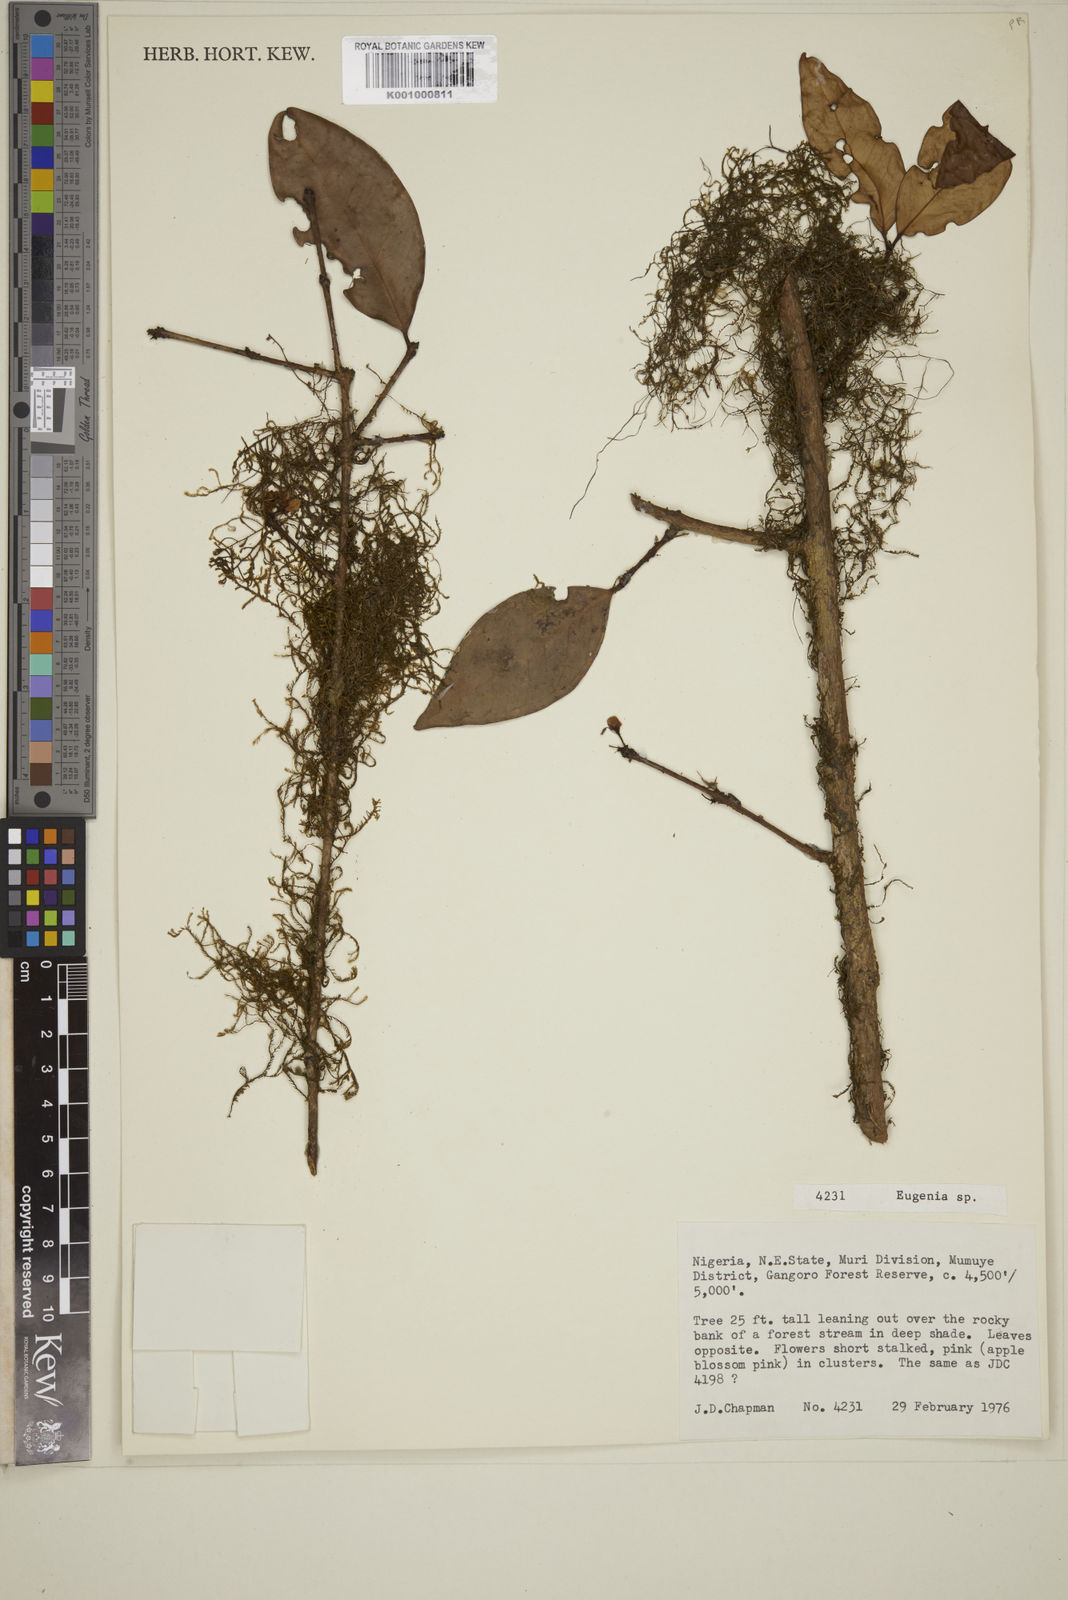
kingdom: Plantae
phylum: Tracheophyta
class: Magnoliopsida
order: Myrtales
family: Myrtaceae
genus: Eugenia
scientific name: Eugenia
